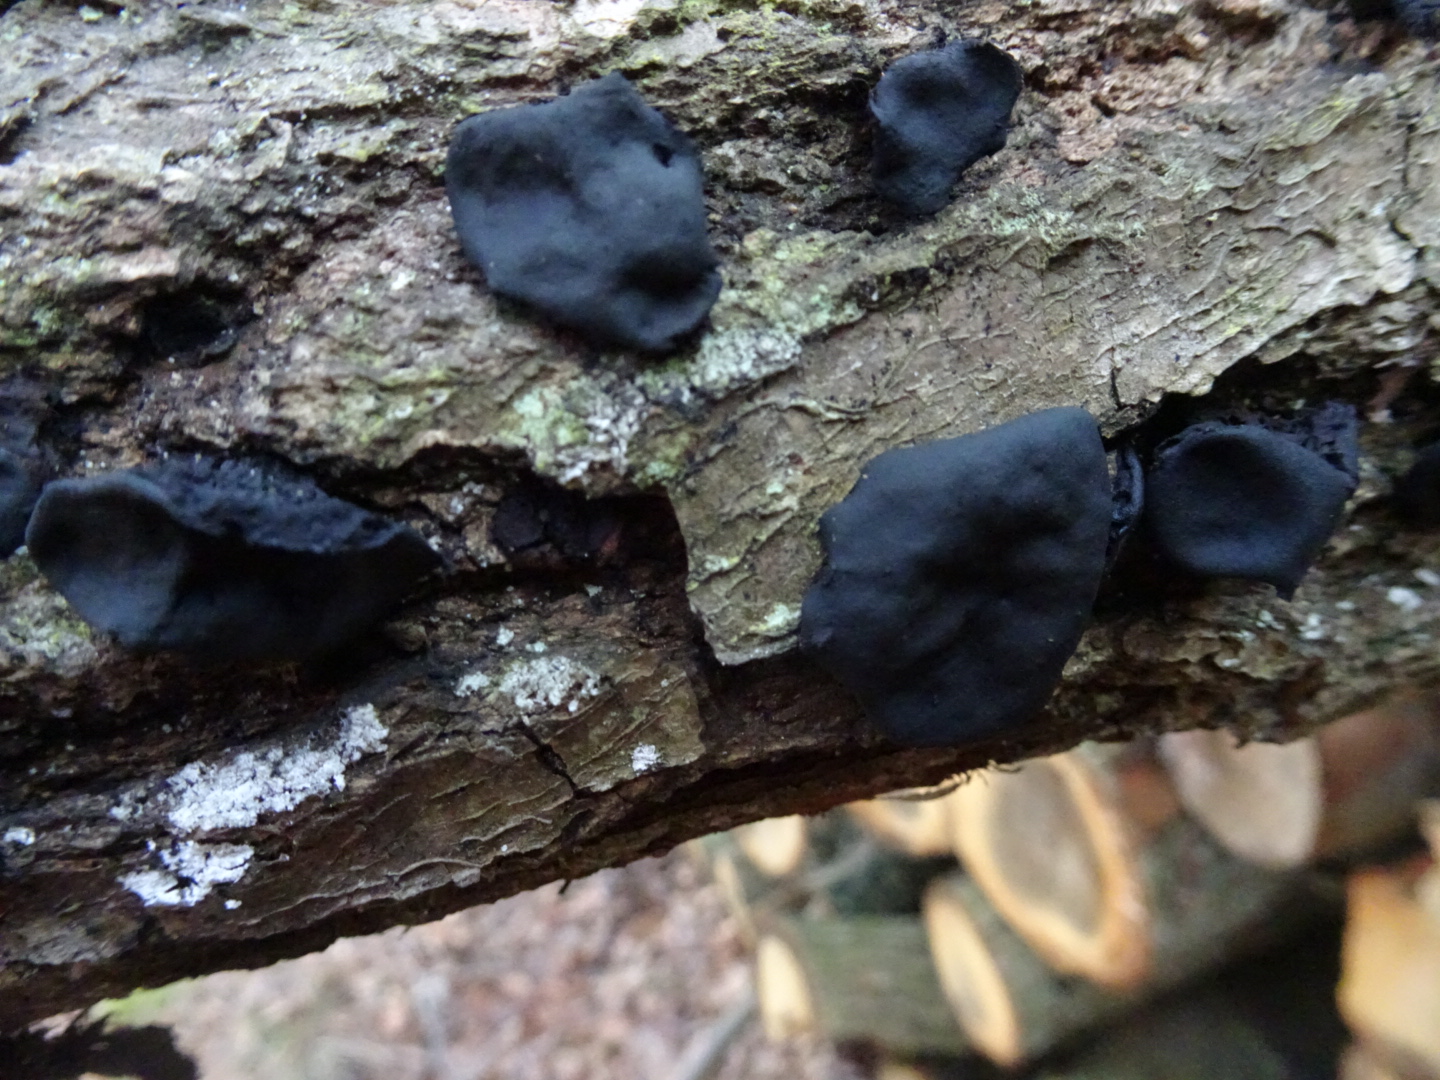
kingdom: Fungi
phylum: Basidiomycota
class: Agaricomycetes
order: Auriculariales
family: Auriculariaceae
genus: Exidia
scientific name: Exidia glandulosa
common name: ege-bævretop
